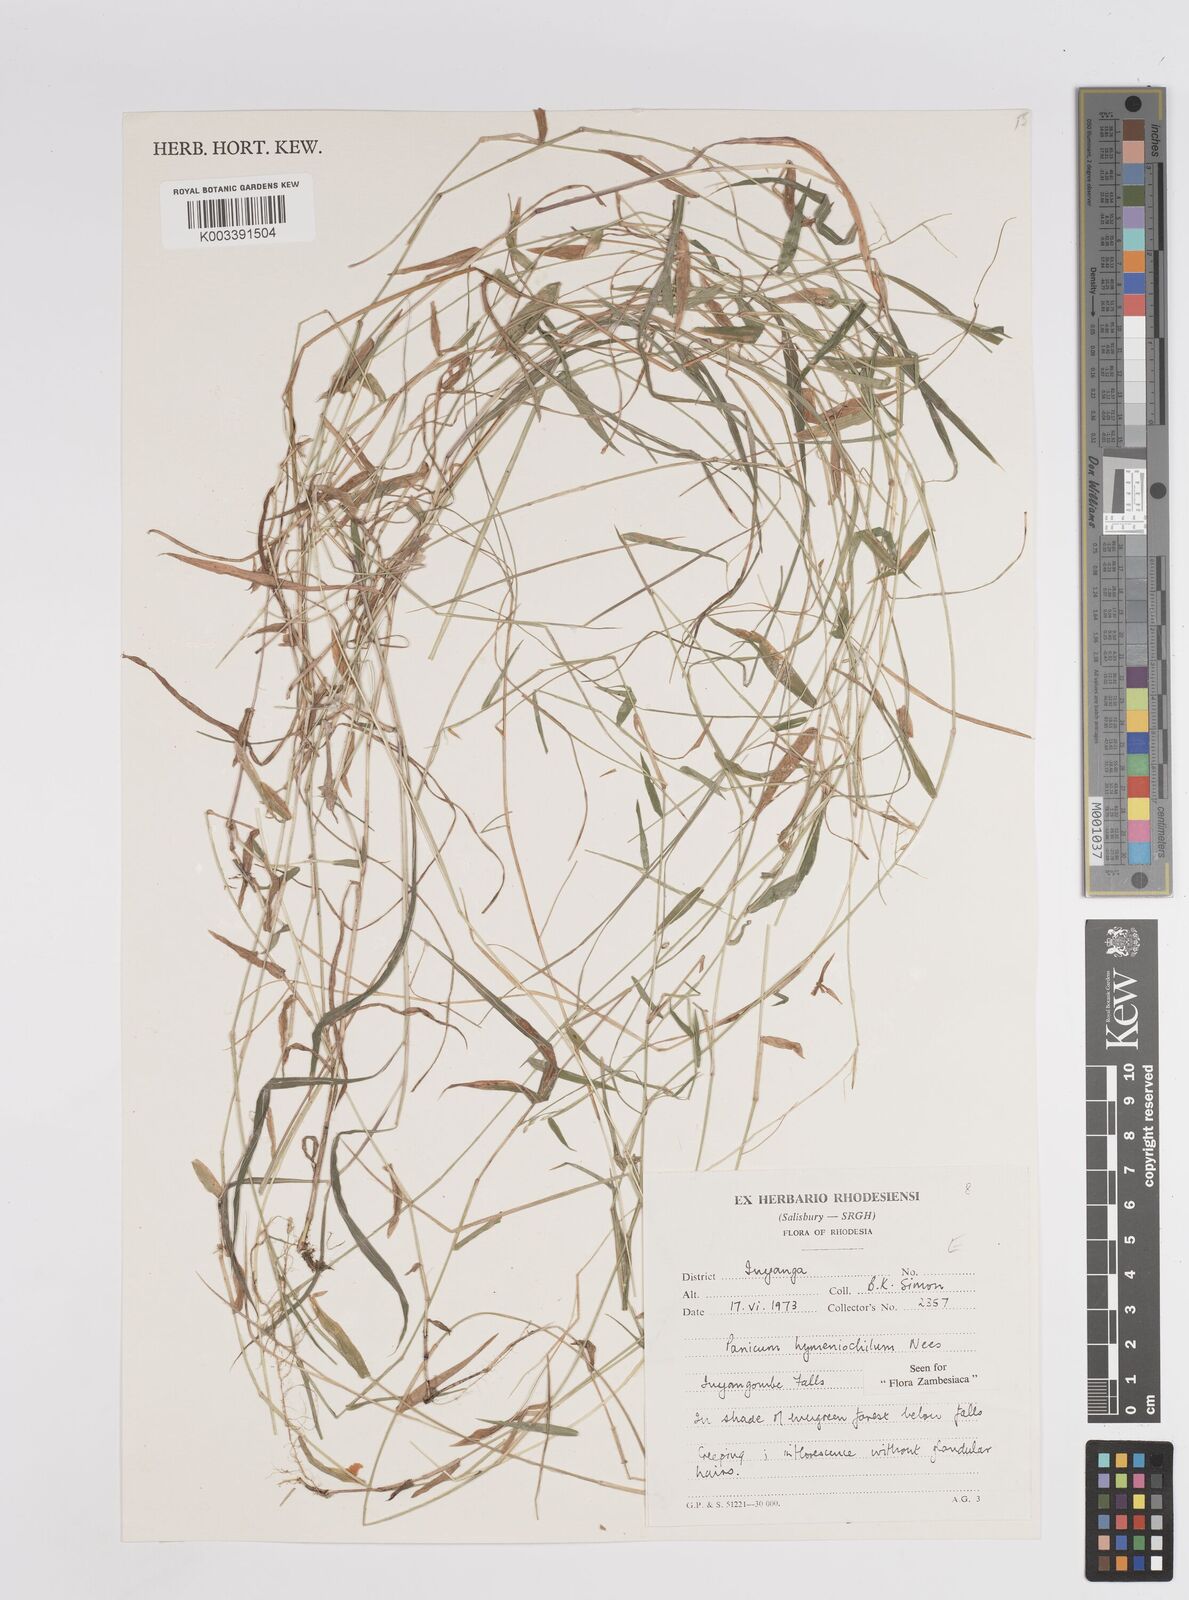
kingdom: Plantae
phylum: Tracheophyta
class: Liliopsida
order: Poales
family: Poaceae
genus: Adenochloa
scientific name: Adenochloa hymeniochila
